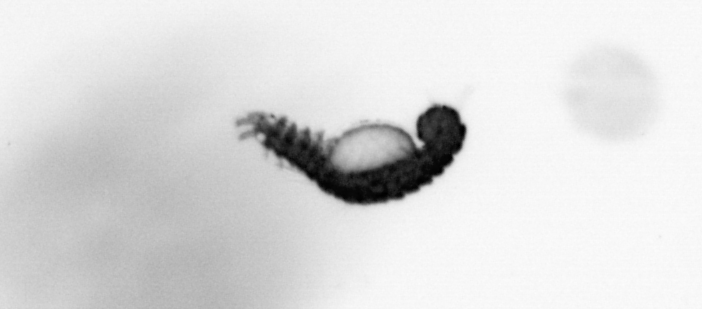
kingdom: Animalia
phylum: Annelida
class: Polychaeta
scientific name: Polychaeta
